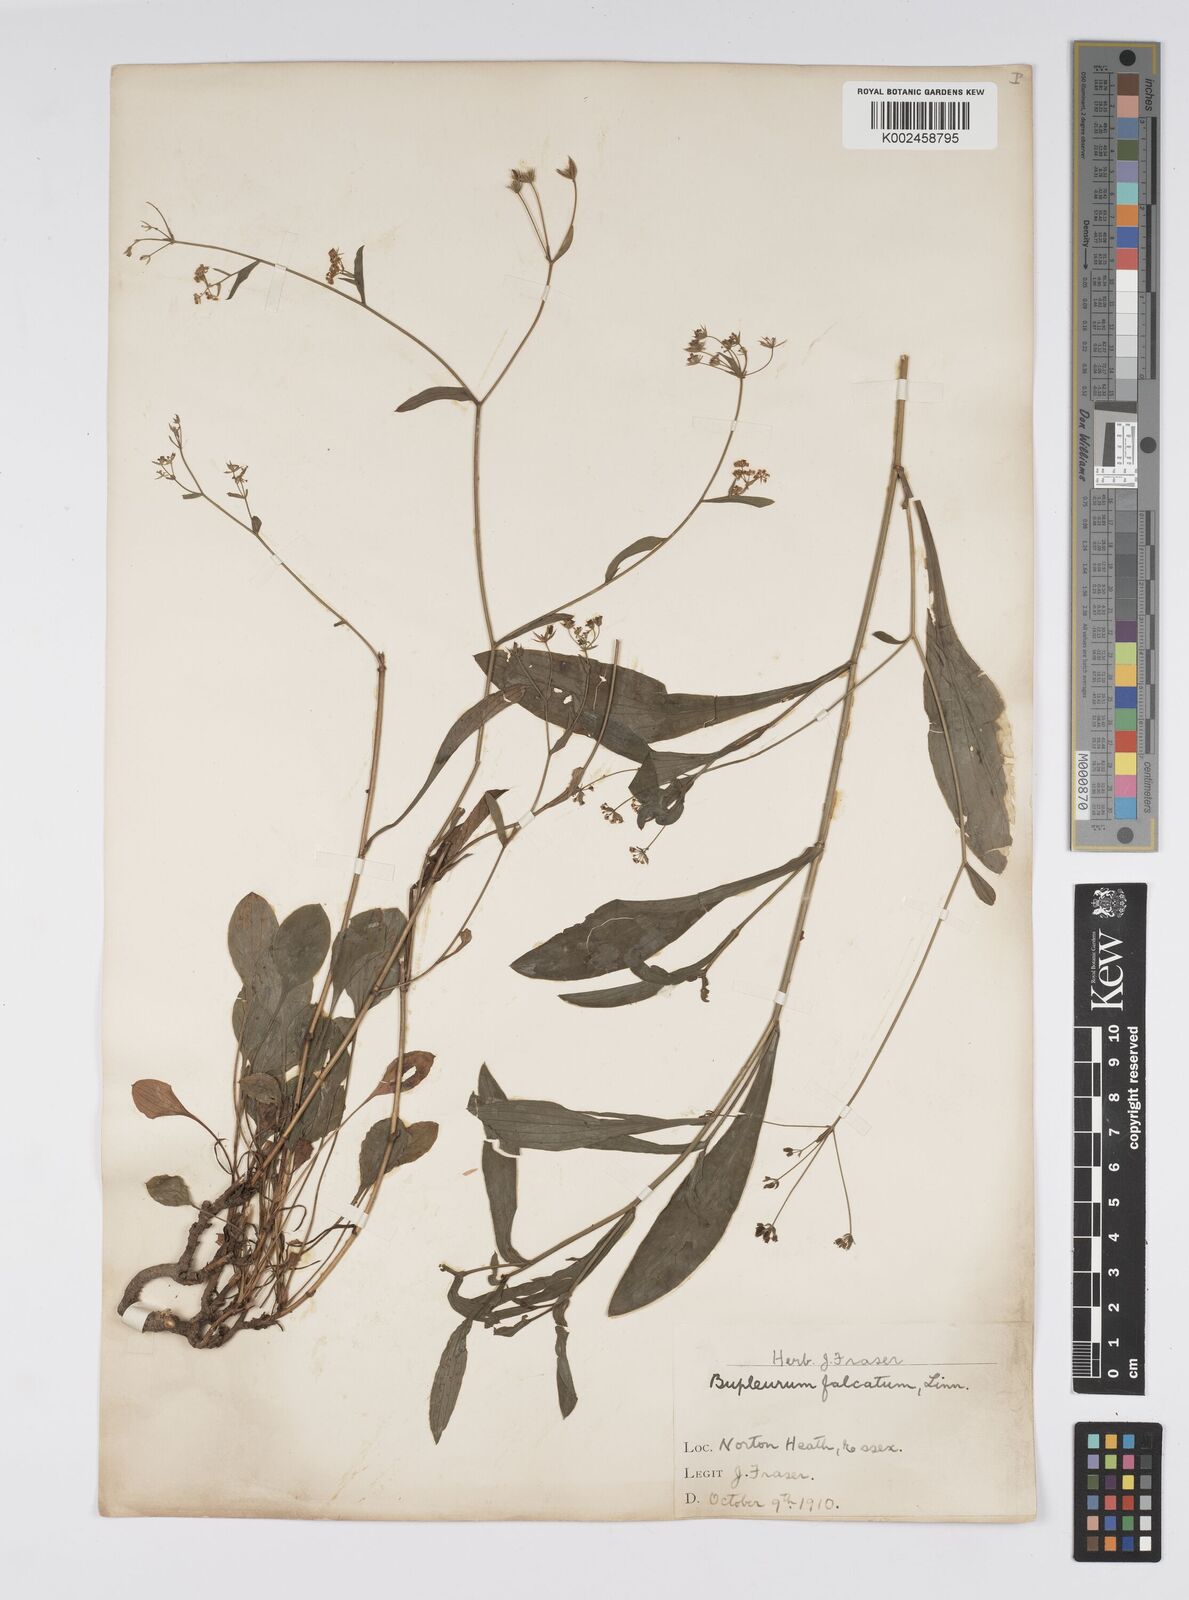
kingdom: Plantae
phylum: Tracheophyta
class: Magnoliopsida
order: Apiales
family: Apiaceae
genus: Bupleurum
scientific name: Bupleurum falcatum
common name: Sickle-leaved hare's-ear
